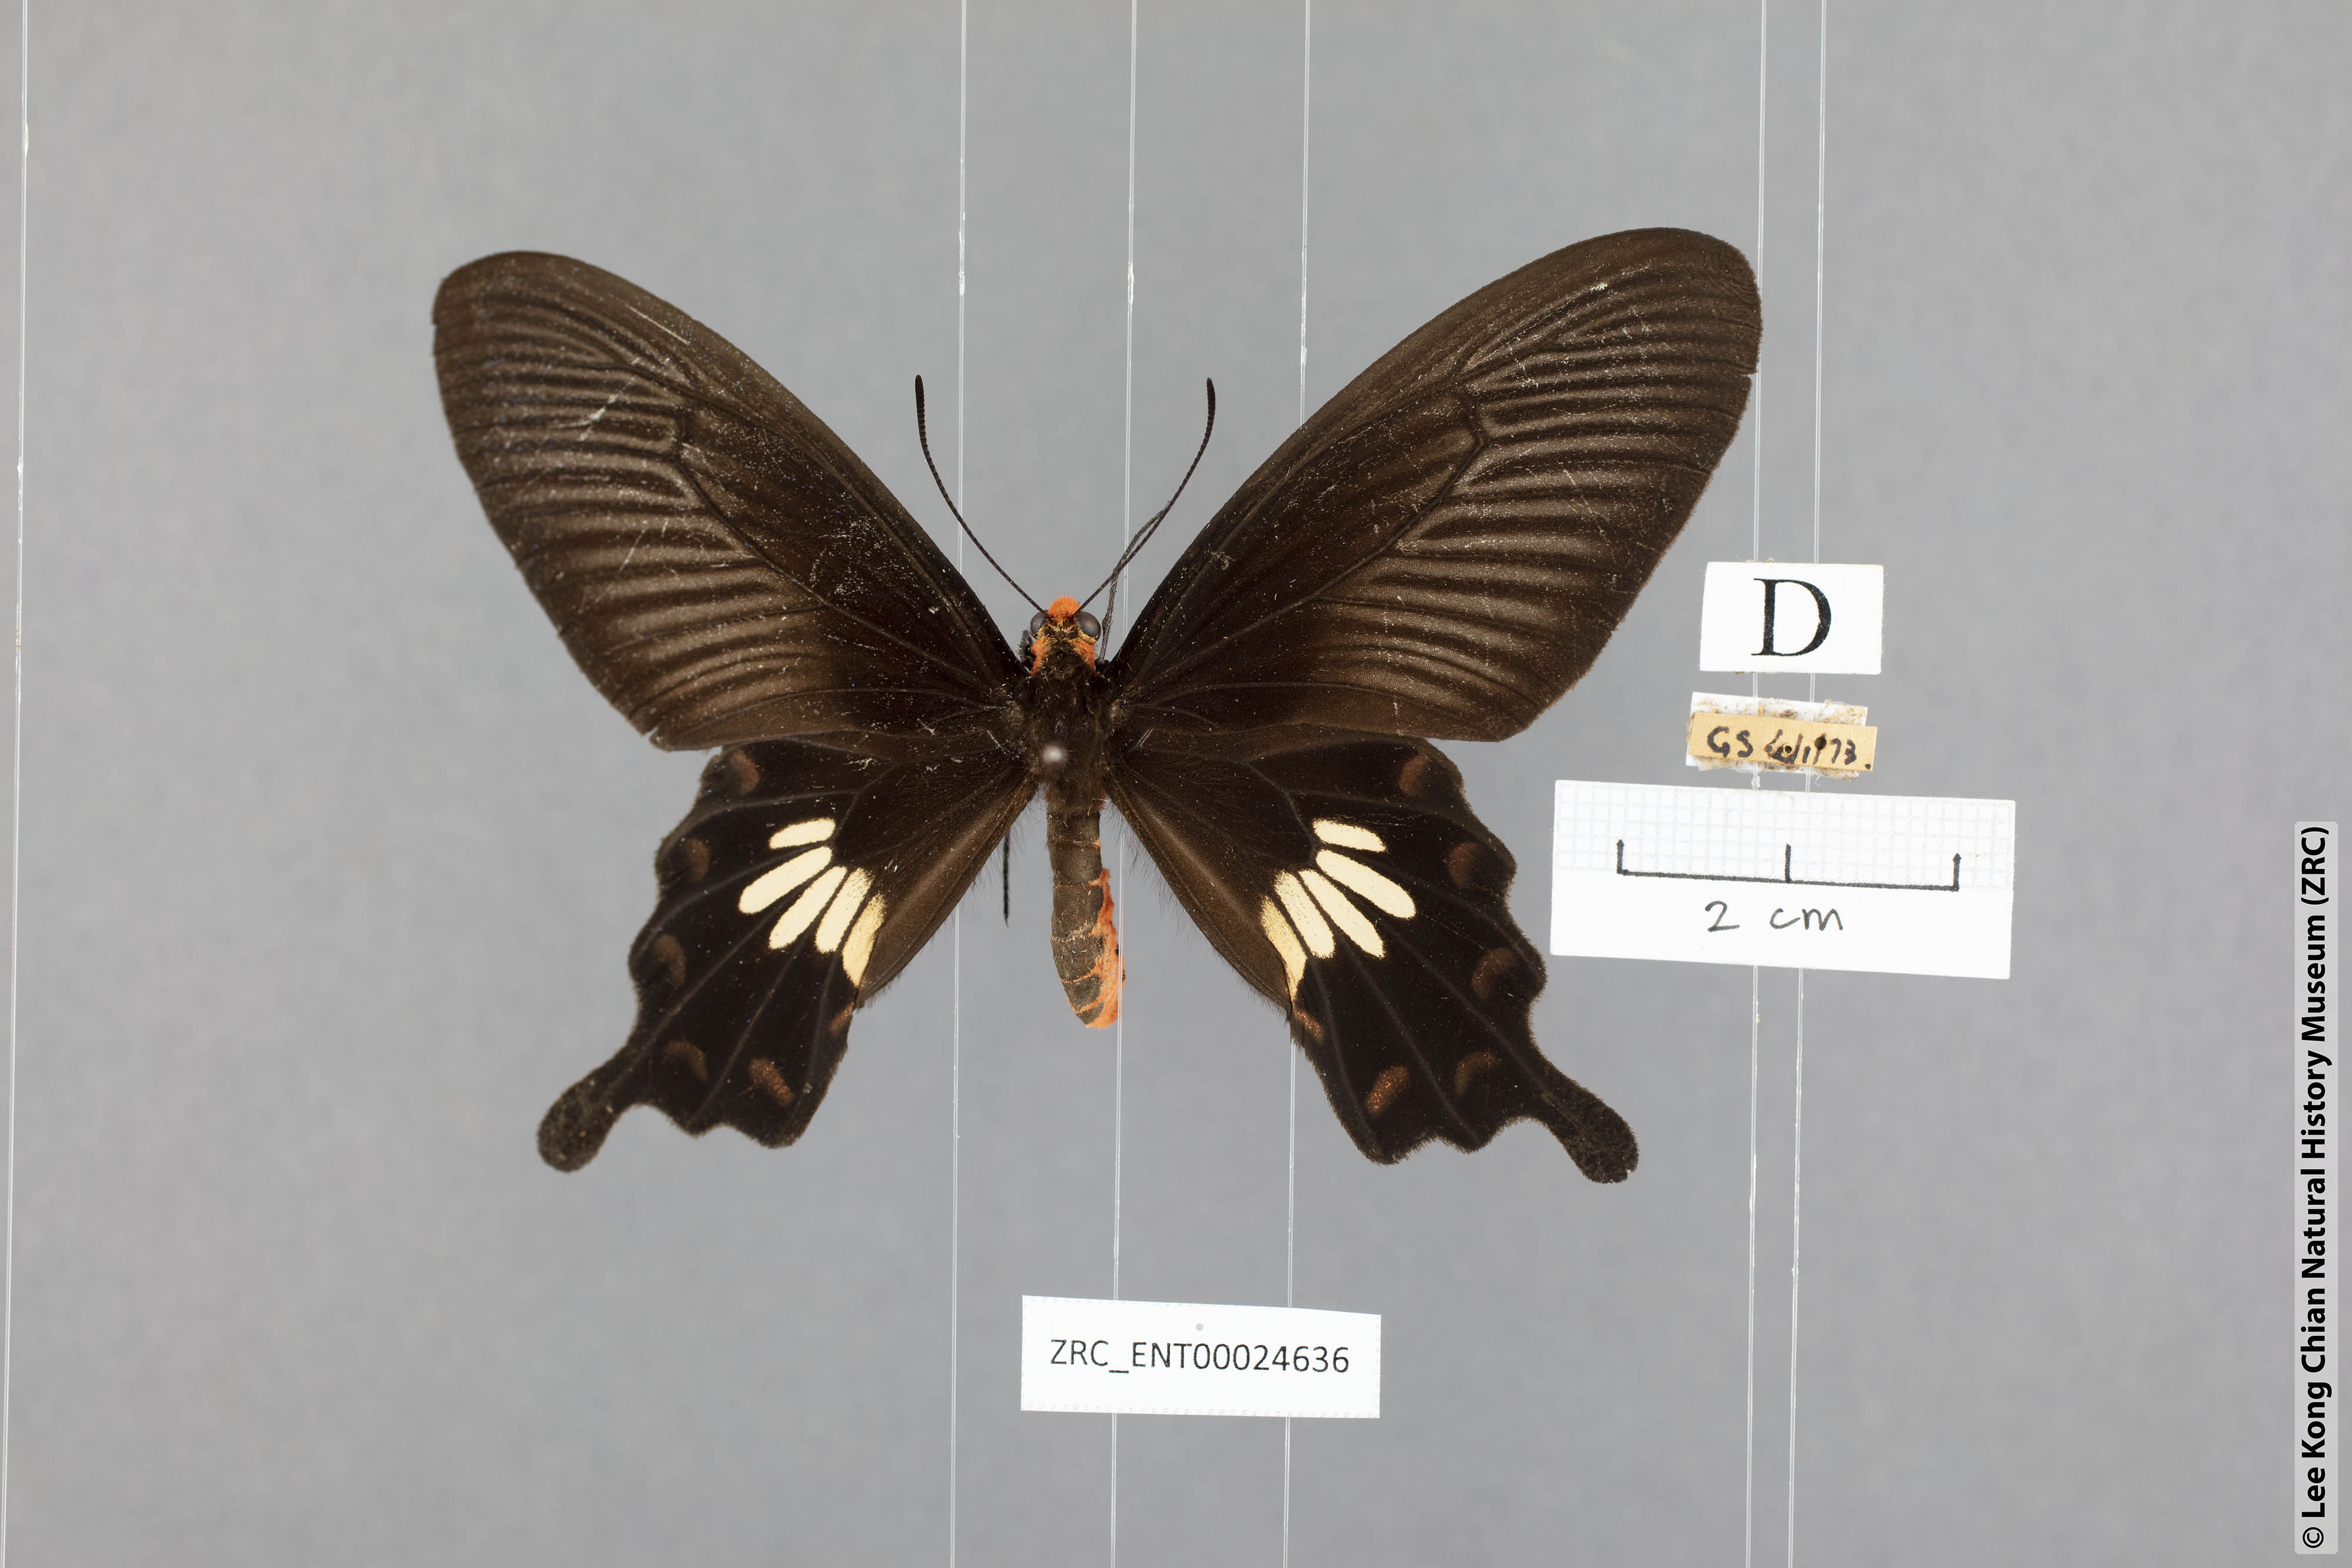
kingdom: Animalia
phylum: Arthropoda
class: Insecta
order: Lepidoptera
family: Papilionidae
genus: Pachliopta
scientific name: Pachliopta aristolochiae
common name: Common rose
